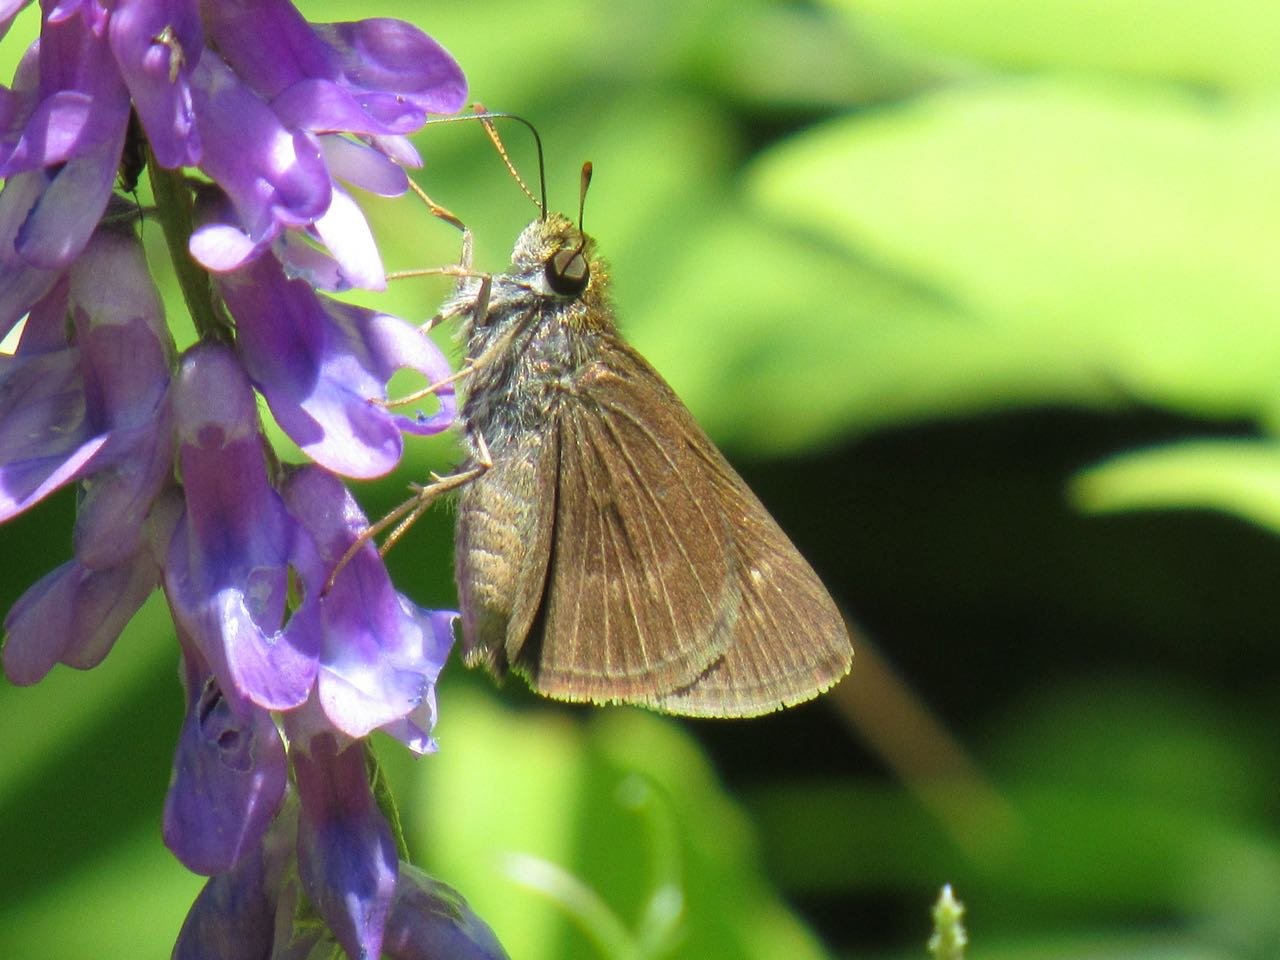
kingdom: Animalia
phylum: Arthropoda
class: Insecta
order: Lepidoptera
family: Hesperiidae
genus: Euphyes
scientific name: Euphyes vestris
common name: Dun Skipper
